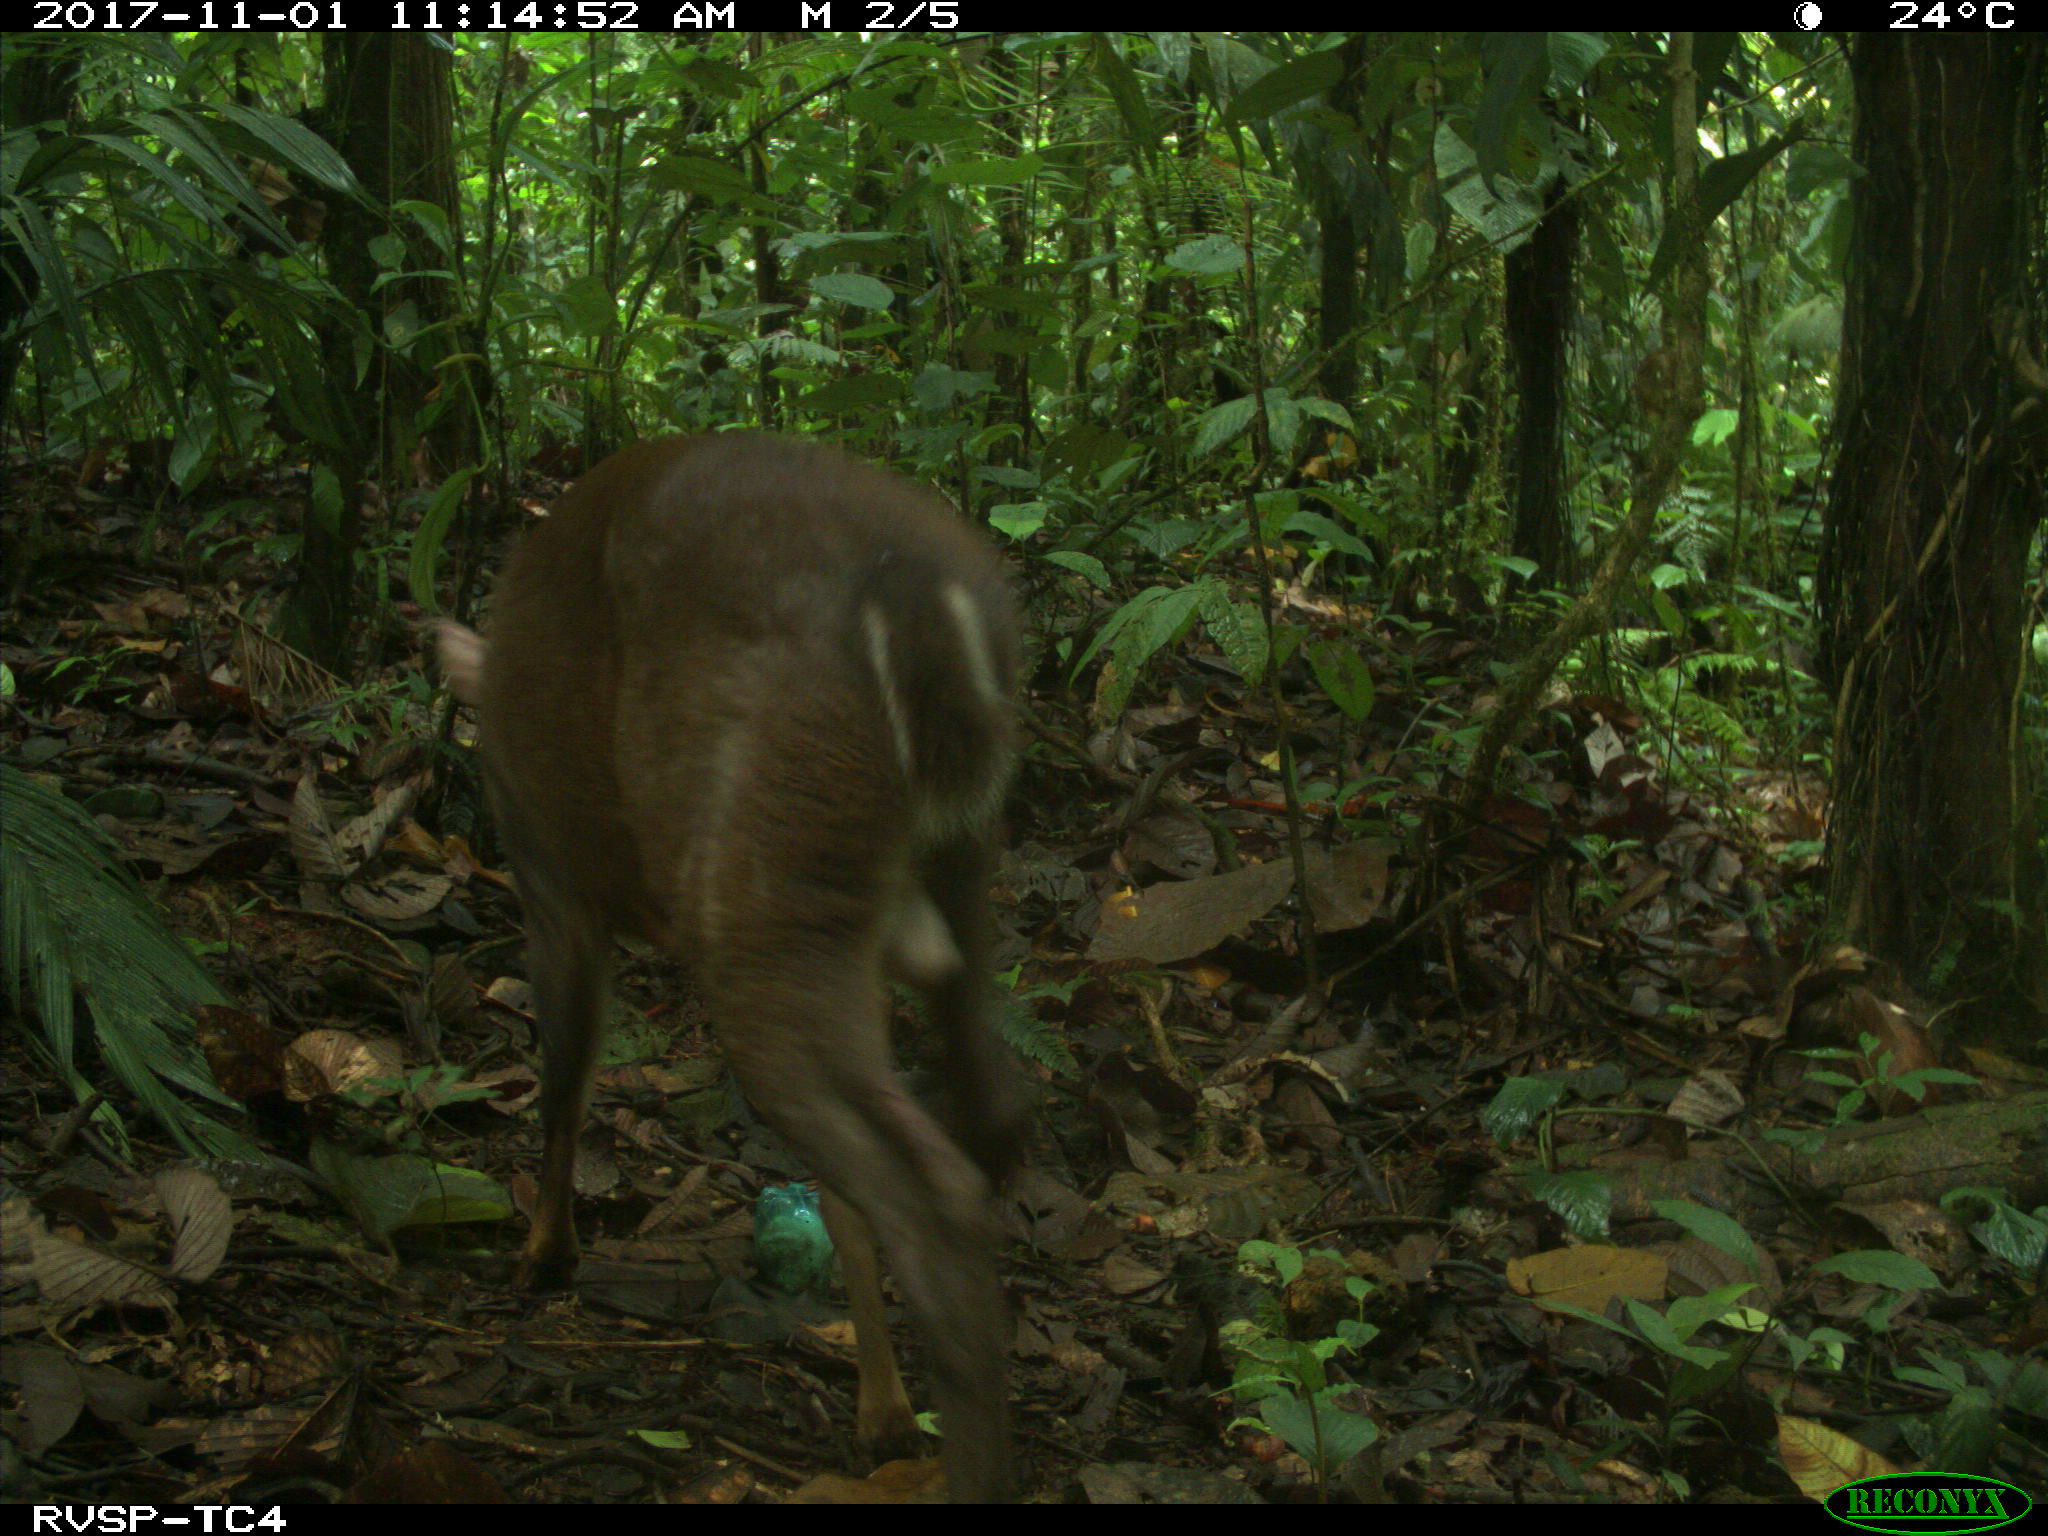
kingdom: Animalia
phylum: Chordata
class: Mammalia
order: Artiodactyla
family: Cervidae
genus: Mazama
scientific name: Mazama americana
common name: Red brocket
